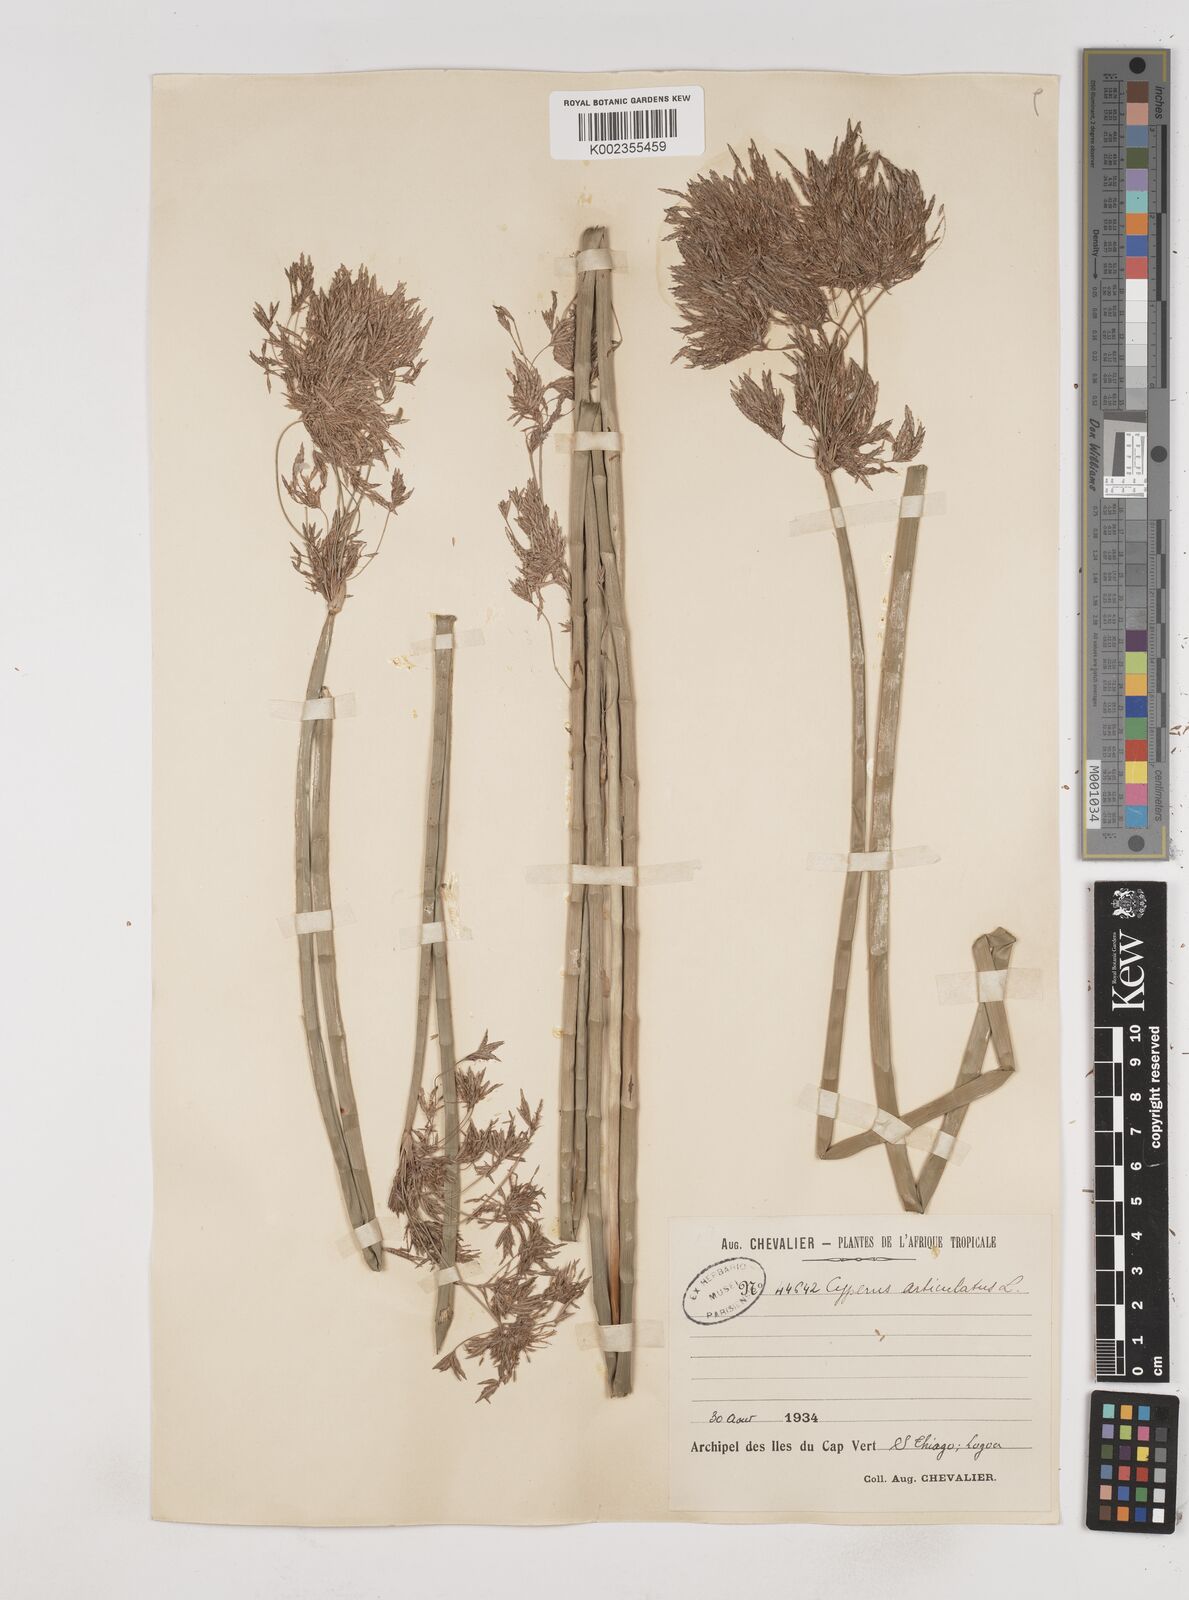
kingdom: Plantae
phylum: Tracheophyta
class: Liliopsida
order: Poales
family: Cyperaceae
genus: Cyperus
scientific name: Cyperus articulatus
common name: Jointed flatsedge
